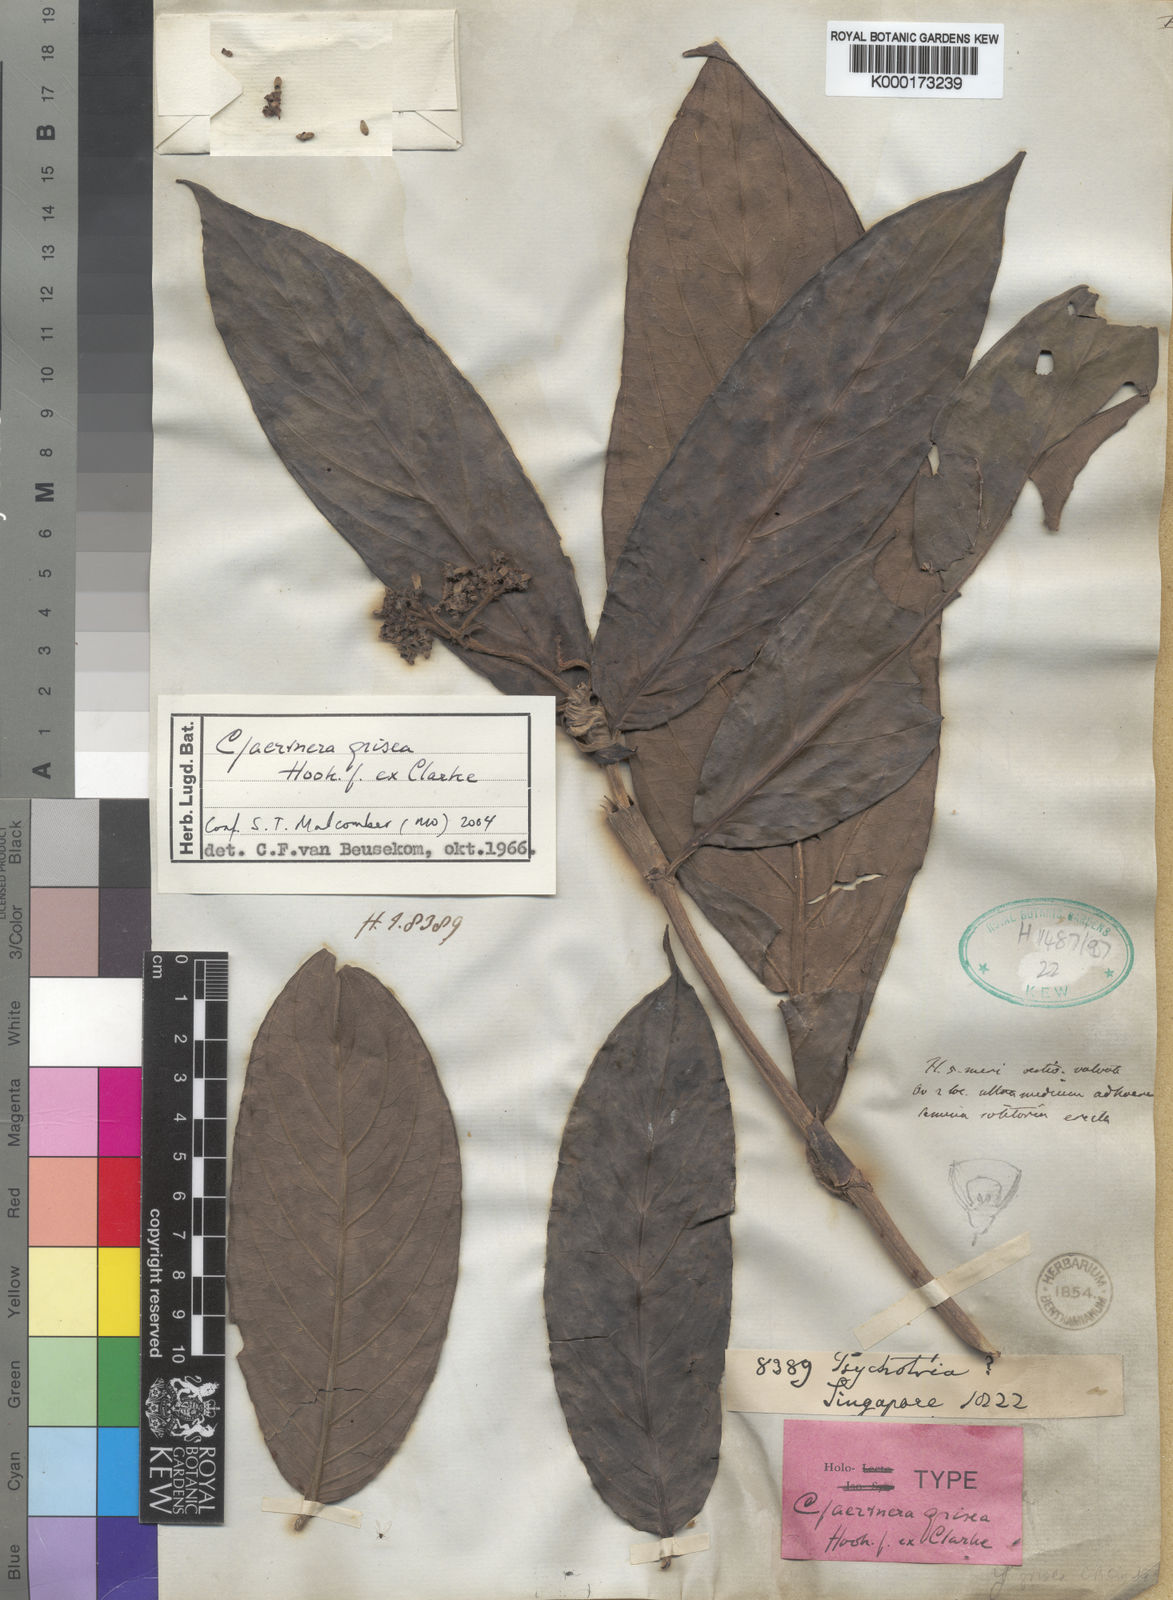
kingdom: Plantae
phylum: Tracheophyta
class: Magnoliopsida
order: Gentianales
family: Rubiaceae
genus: Gaertnera
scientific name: Gaertnera grisea
